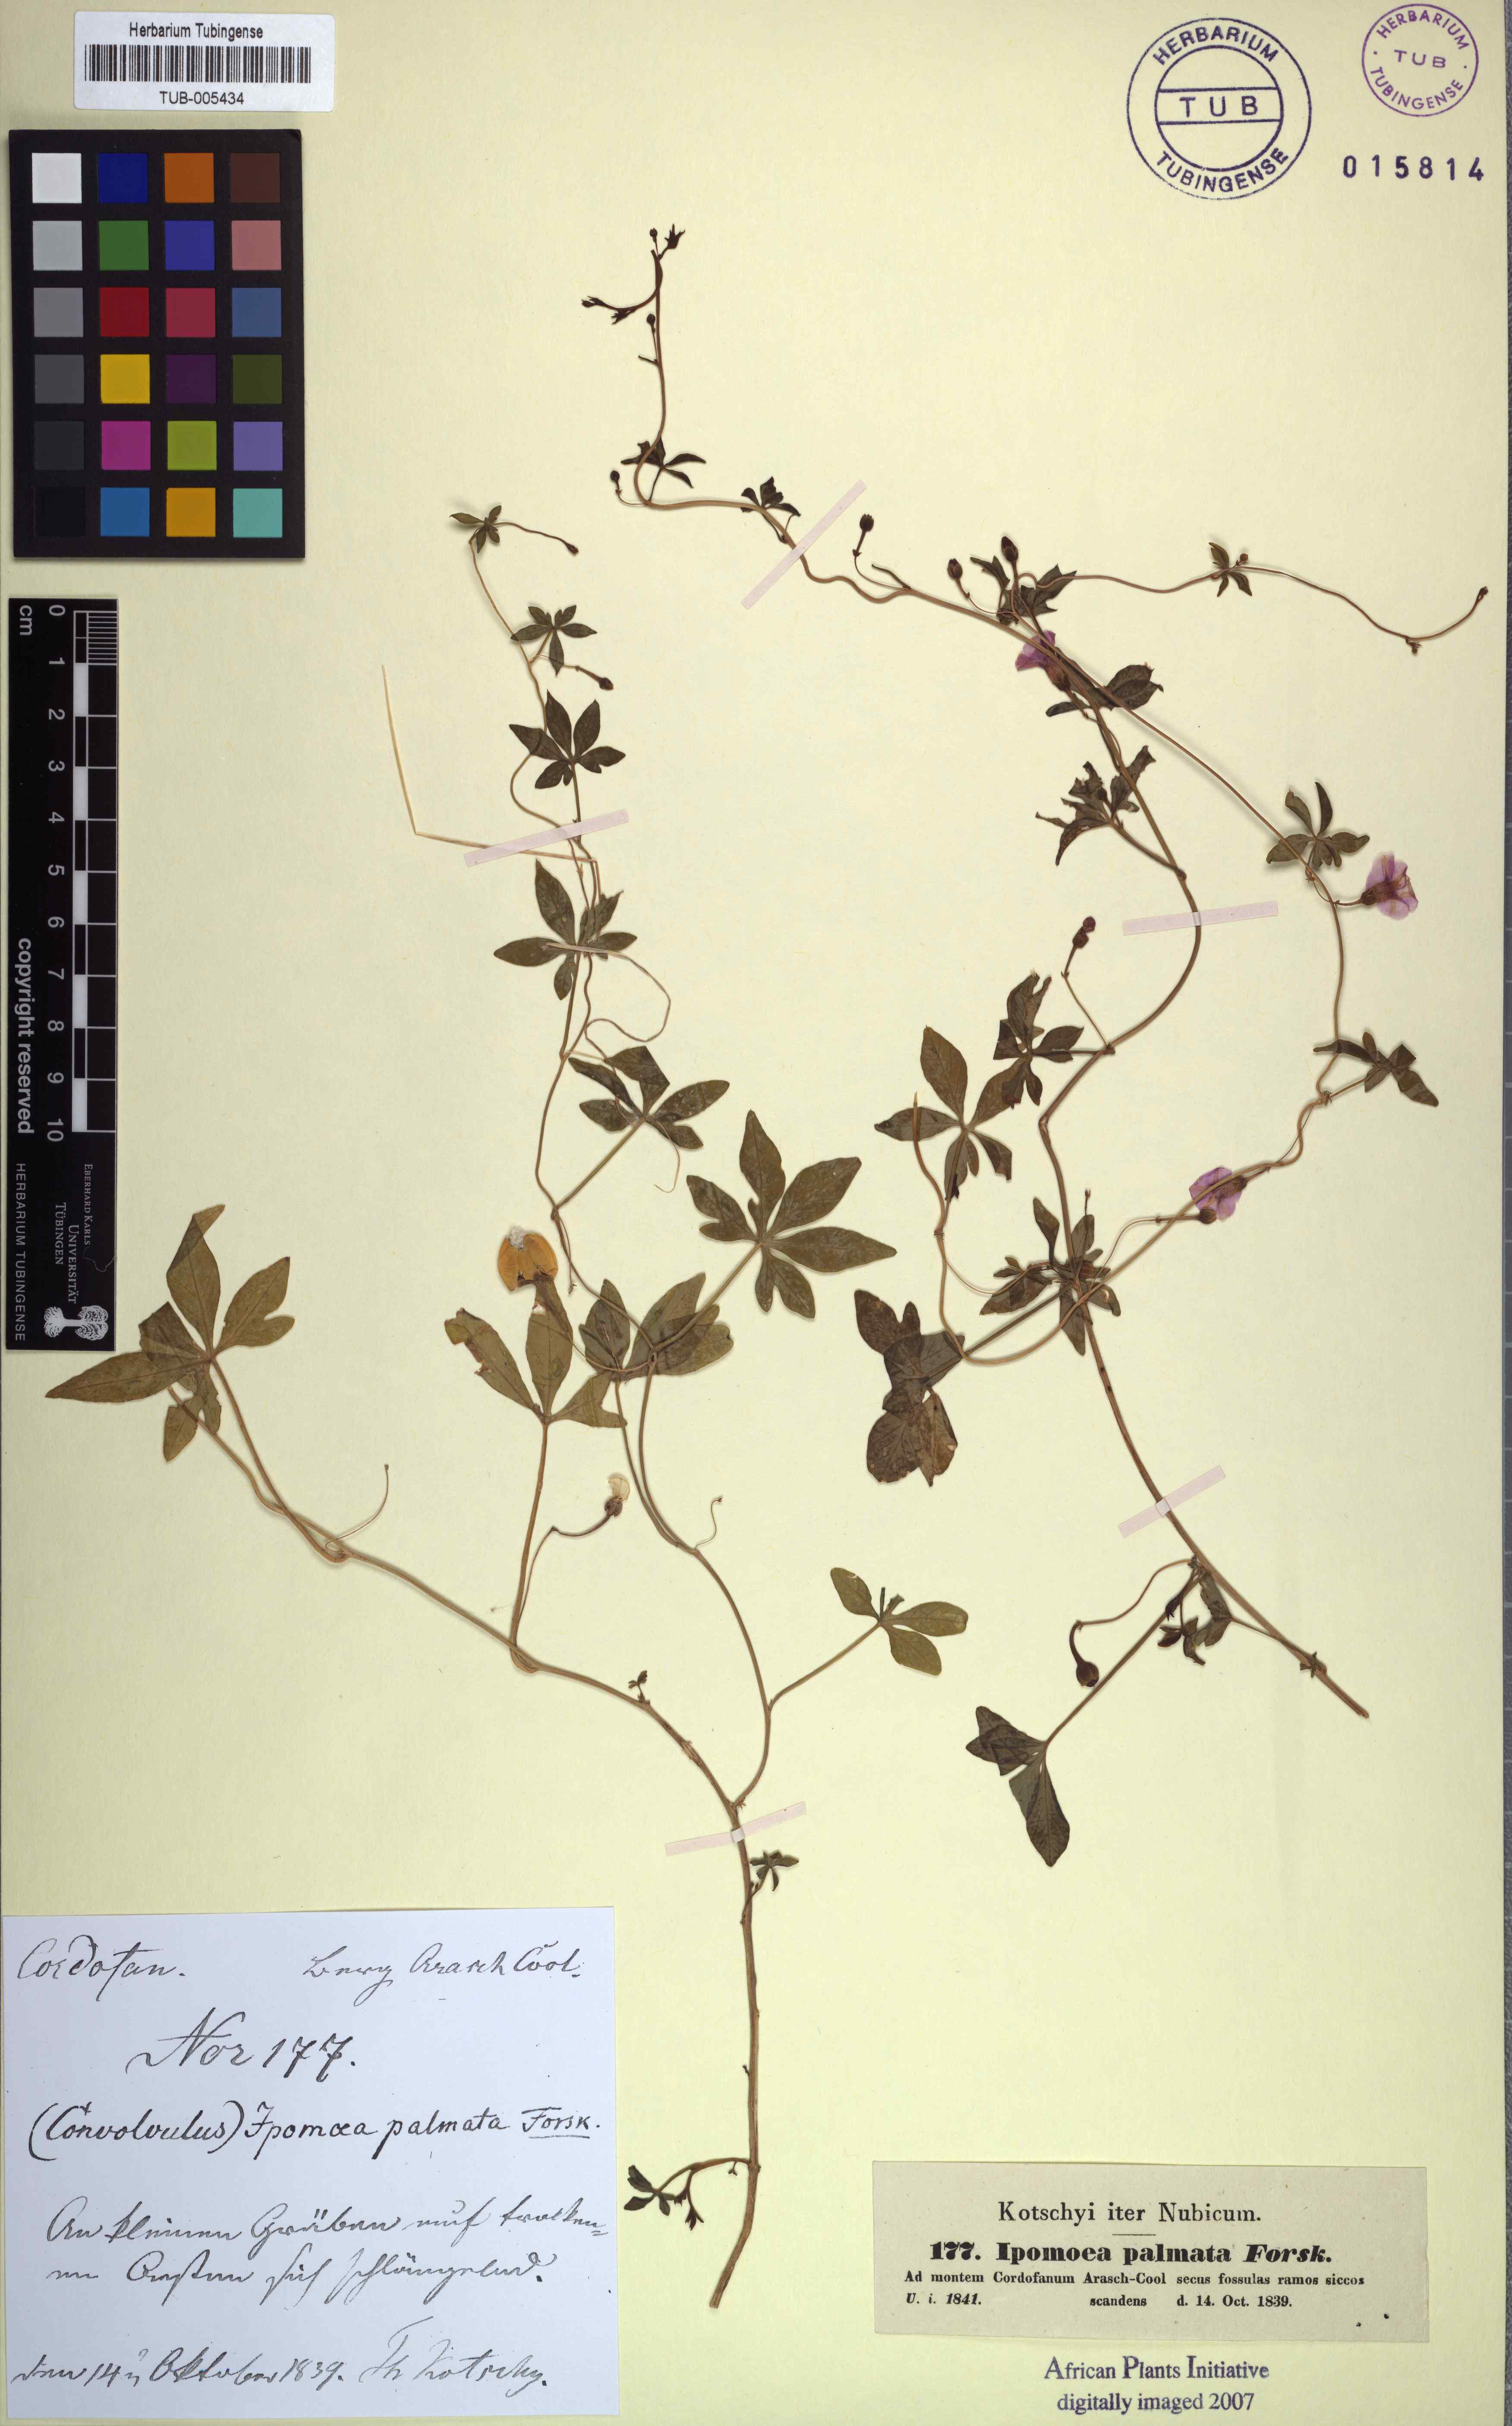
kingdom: Plantae
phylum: Tracheophyta
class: Magnoliopsida
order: Solanales
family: Convolvulaceae
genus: Ipomoea
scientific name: Ipomoea cairica
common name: Mile a minute vine
